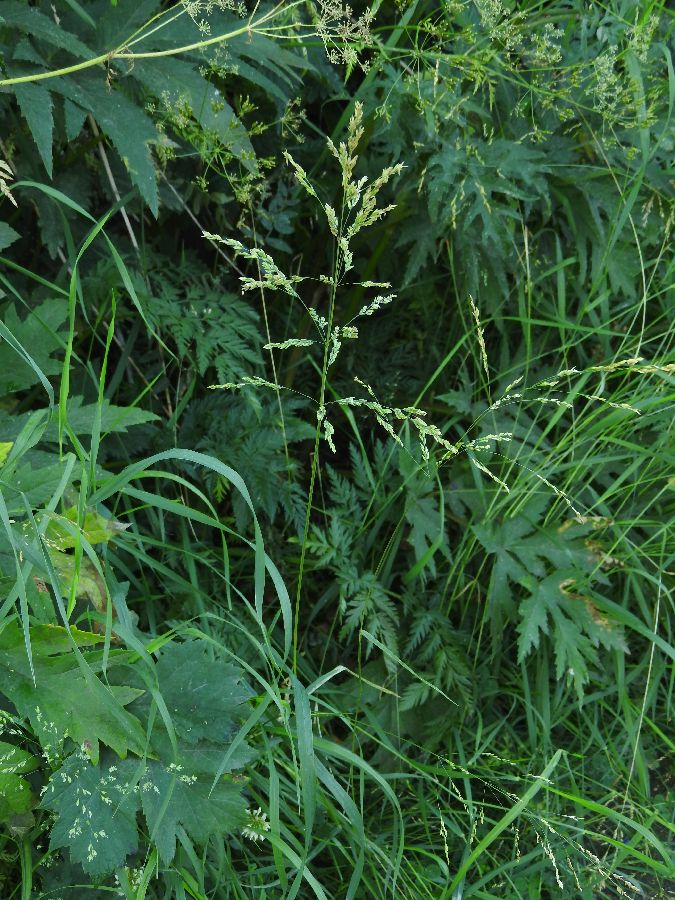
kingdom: Plantae
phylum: Tracheophyta
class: Liliopsida
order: Poales
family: Poaceae
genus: Poa
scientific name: Poa trivialis
